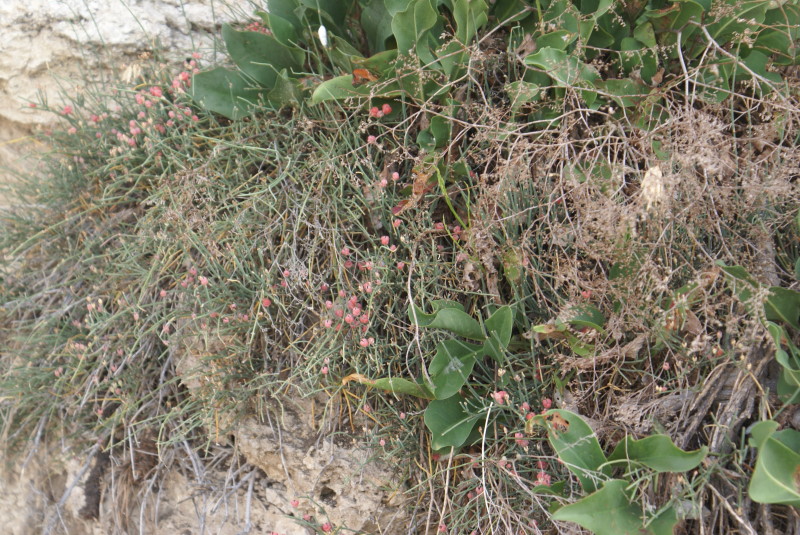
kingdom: Plantae
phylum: Tracheophyta
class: Gnetopsida
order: Ephedrales
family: Ephedraceae
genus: Ephedra
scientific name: Ephedra distachya
